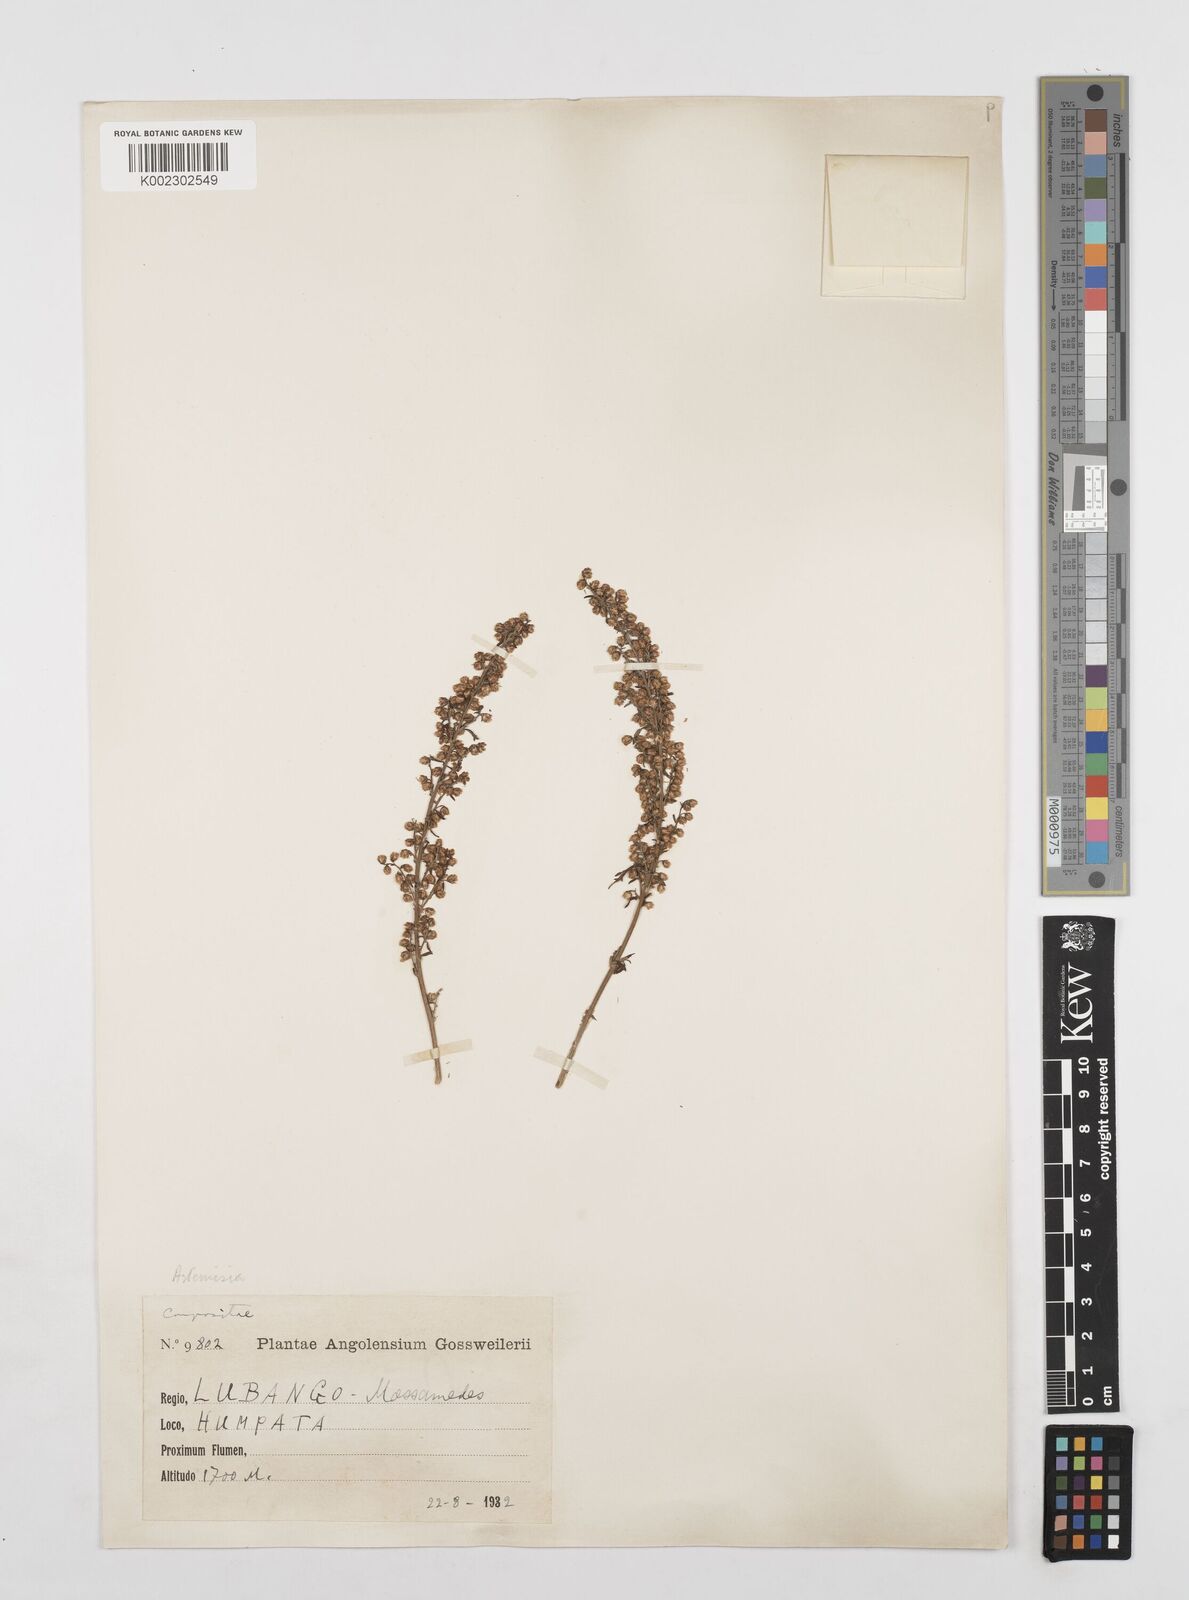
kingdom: Plantae
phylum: Tracheophyta
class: Magnoliopsida
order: Asterales
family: Asteraceae
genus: Artemisia
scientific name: Artemisia afra
